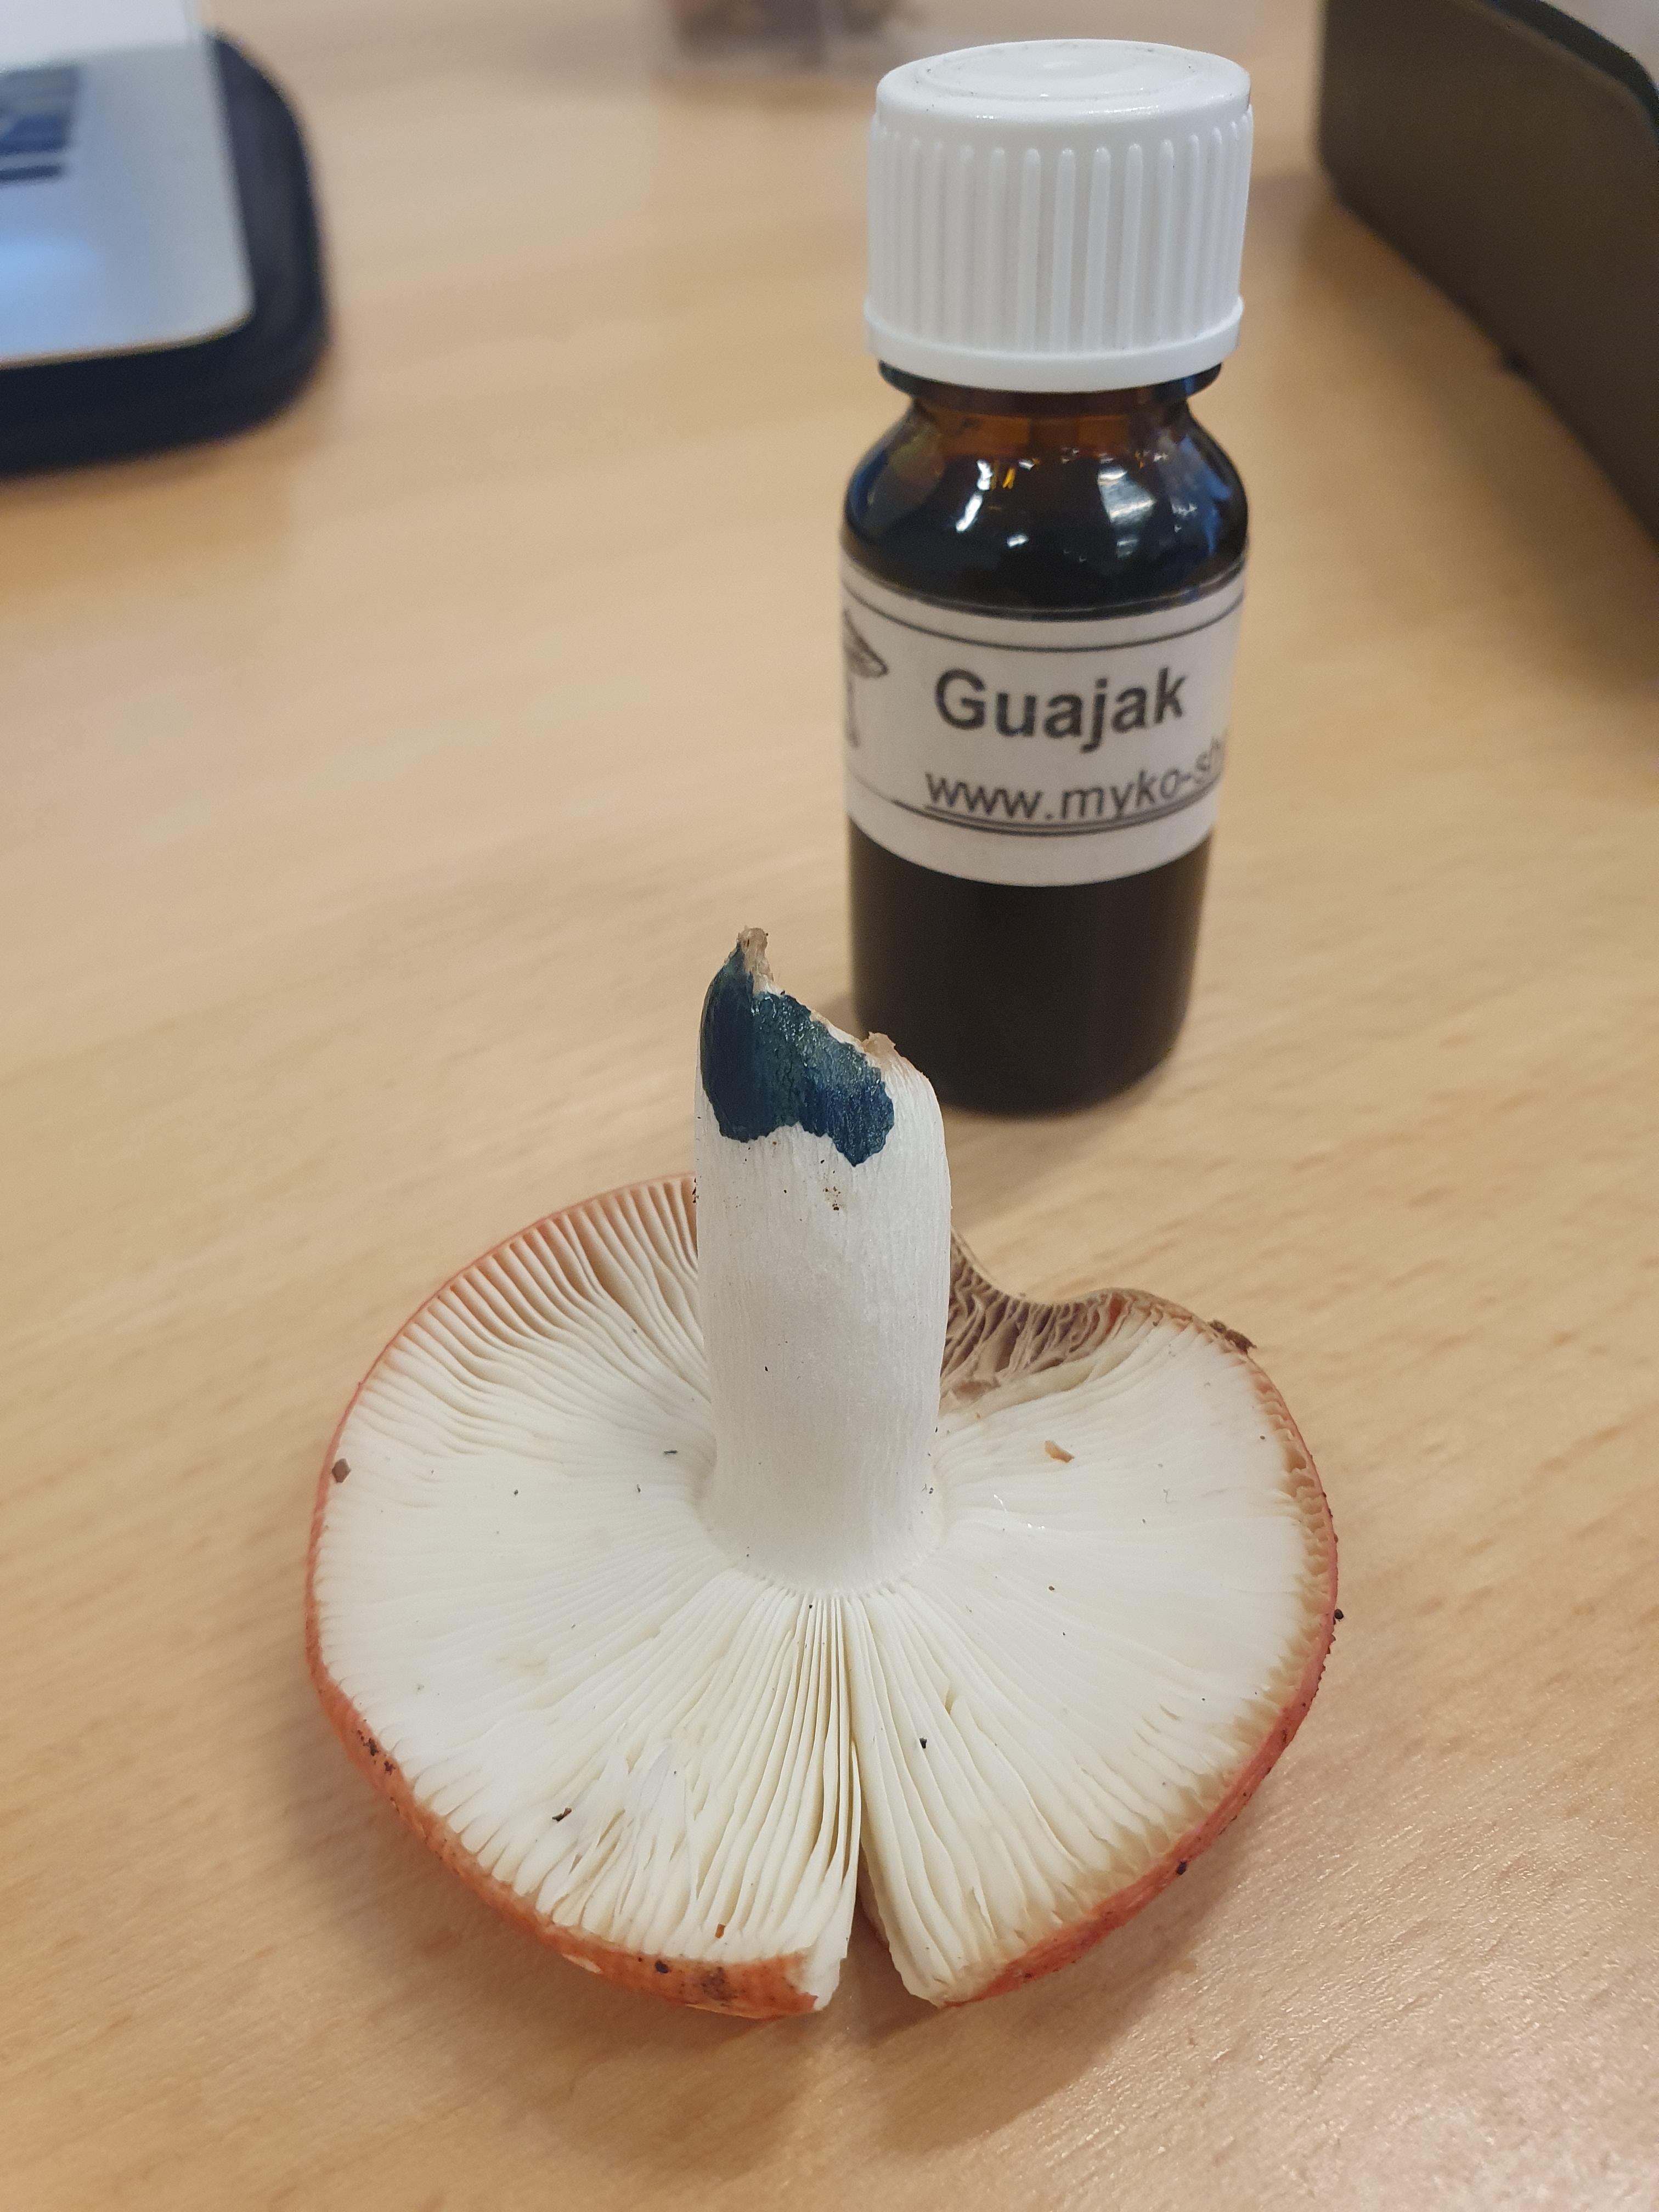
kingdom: Fungi
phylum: Basidiomycota
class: Agaricomycetes
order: Russulales
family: Russulaceae
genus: Russula
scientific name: Russula nobilis
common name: lille gift-skørhat
